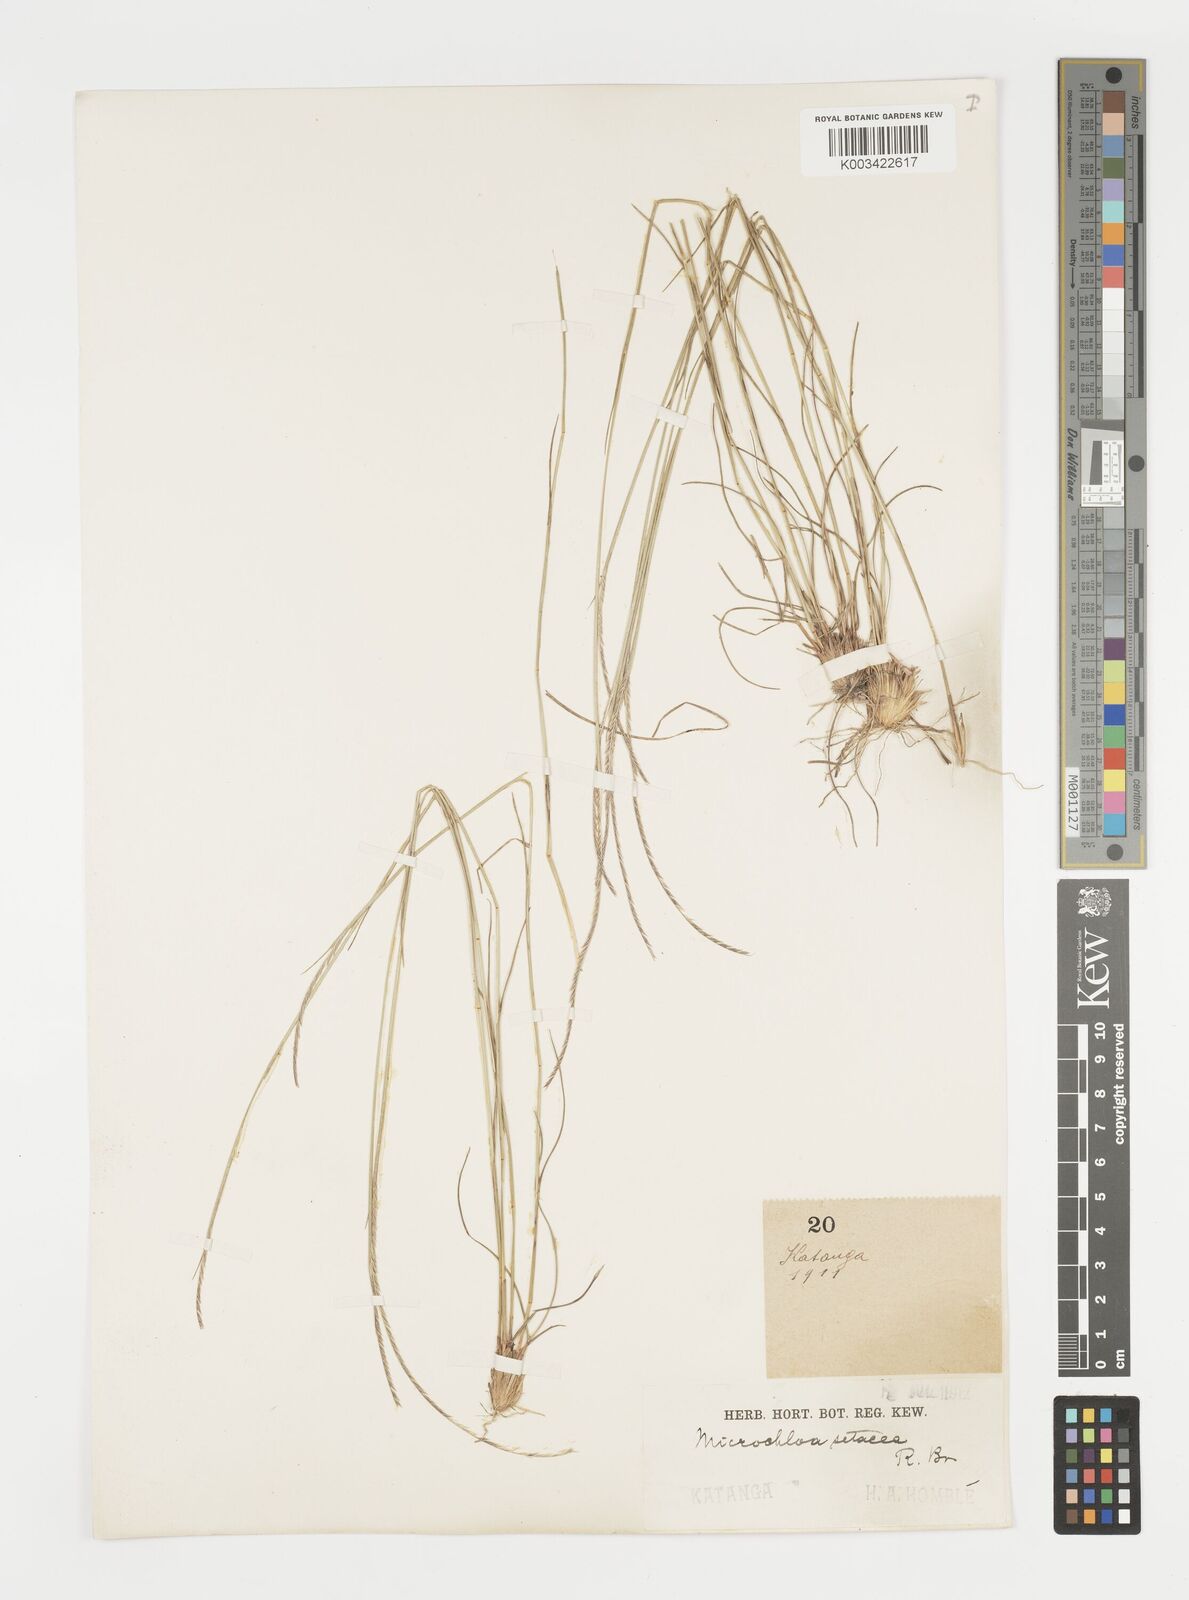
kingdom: Plantae
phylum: Tracheophyta
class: Liliopsida
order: Poales
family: Poaceae
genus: Microchloa
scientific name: Microchloa kunthii
